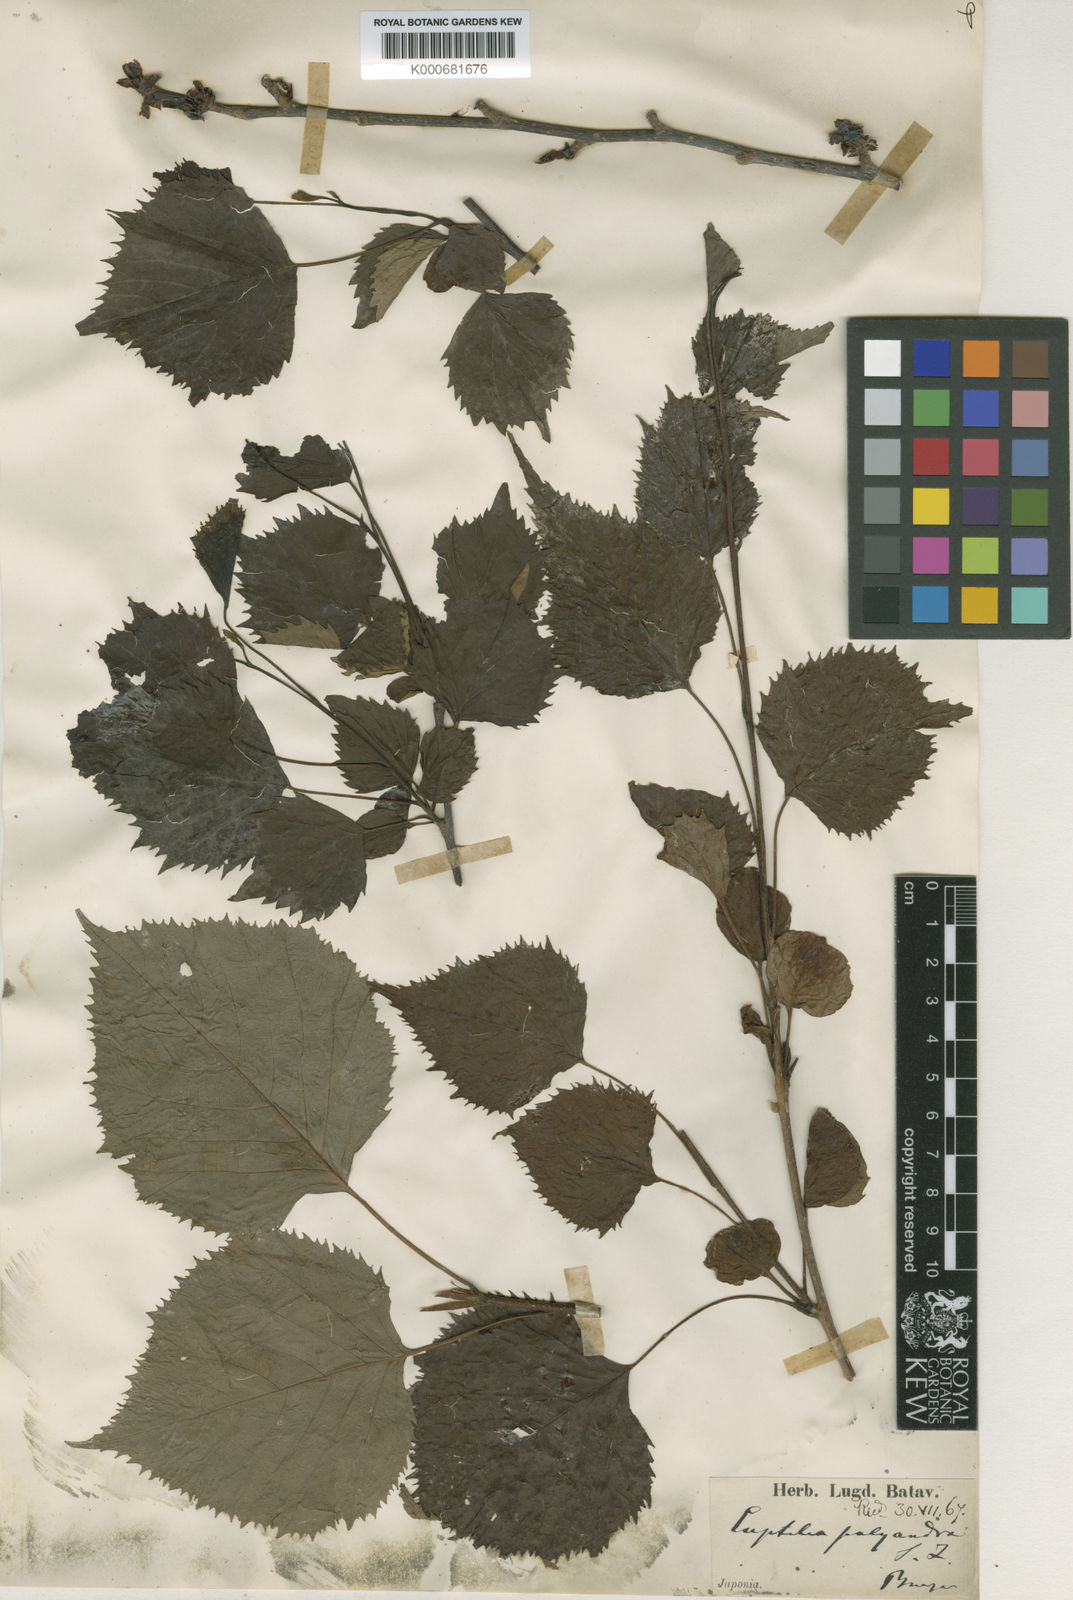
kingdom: Plantae
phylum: Tracheophyta
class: Magnoliopsida
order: Ranunculales
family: Eupteleaceae
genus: Euptelea
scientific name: Euptelea polyandra
